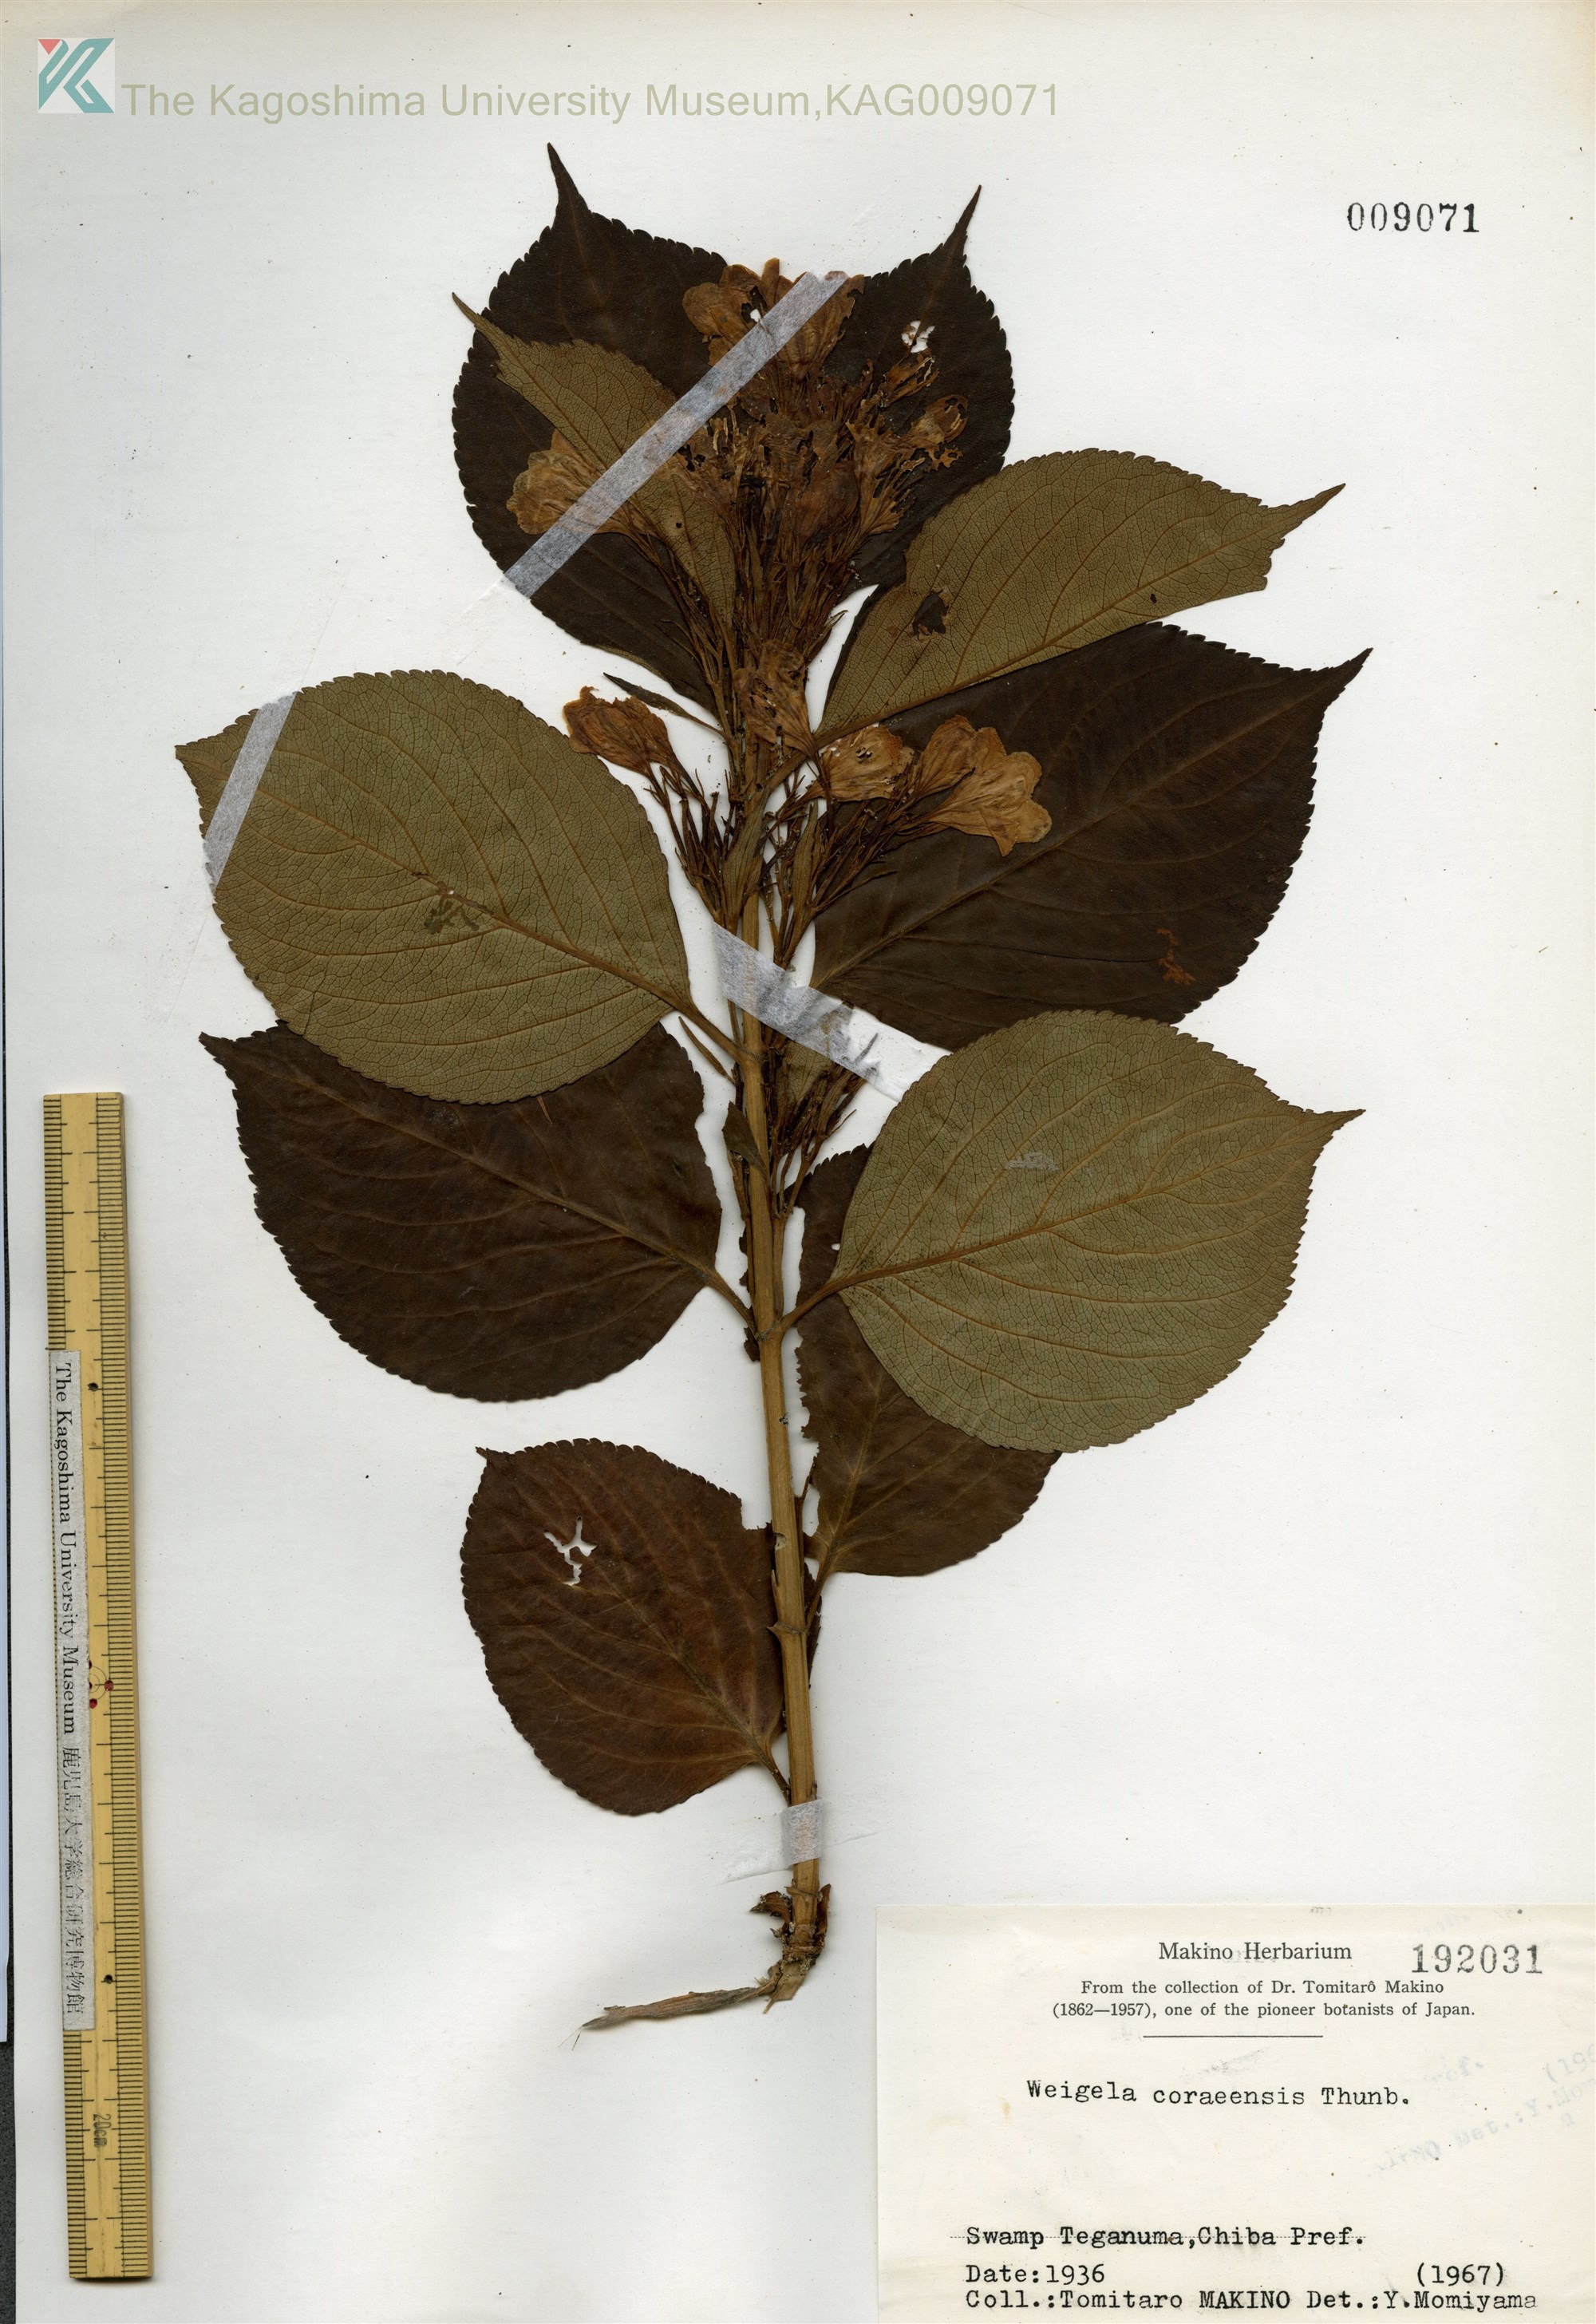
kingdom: Plantae
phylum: Tracheophyta
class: Magnoliopsida
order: Dipsacales
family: Caprifoliaceae
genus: Weigela
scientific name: Weigela
